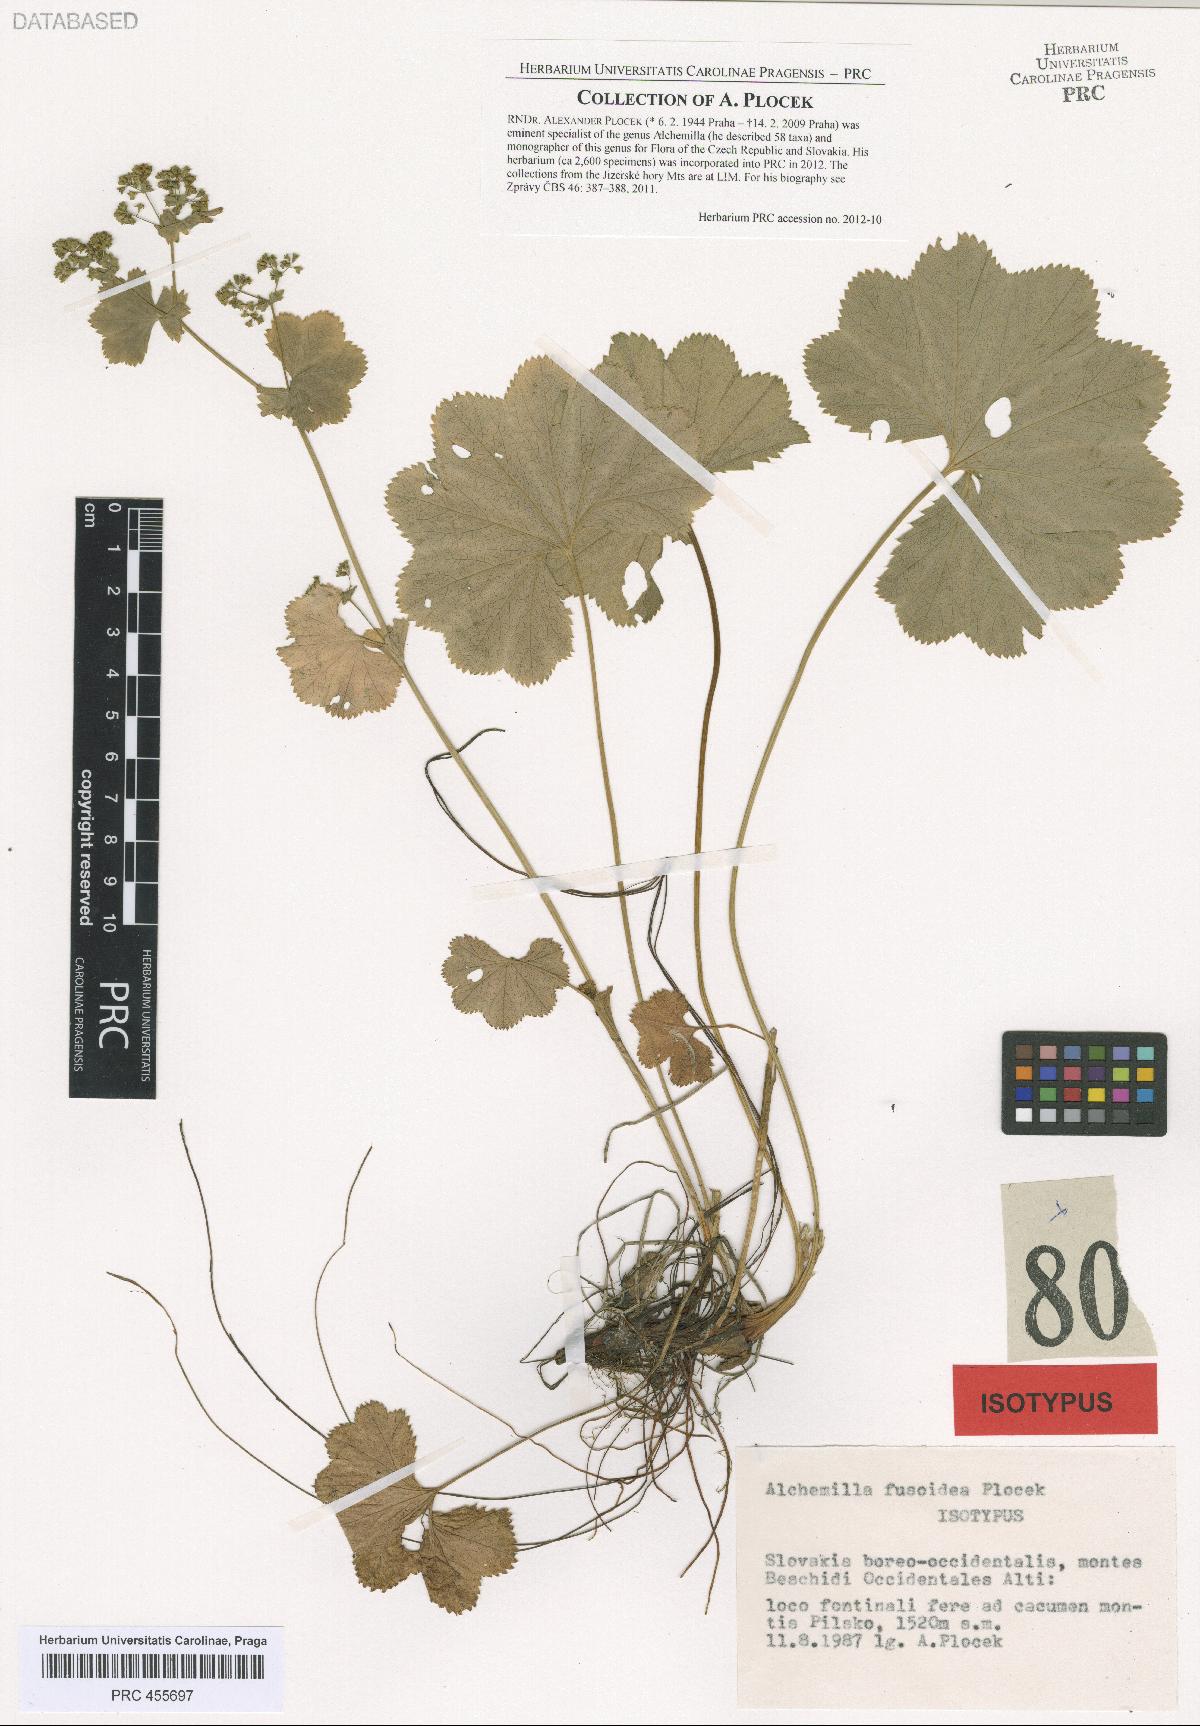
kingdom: Plantae
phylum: Tracheophyta
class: Magnoliopsida
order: Rosales
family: Rosaceae
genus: Alchemilla
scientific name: Alchemilla fusoidea
